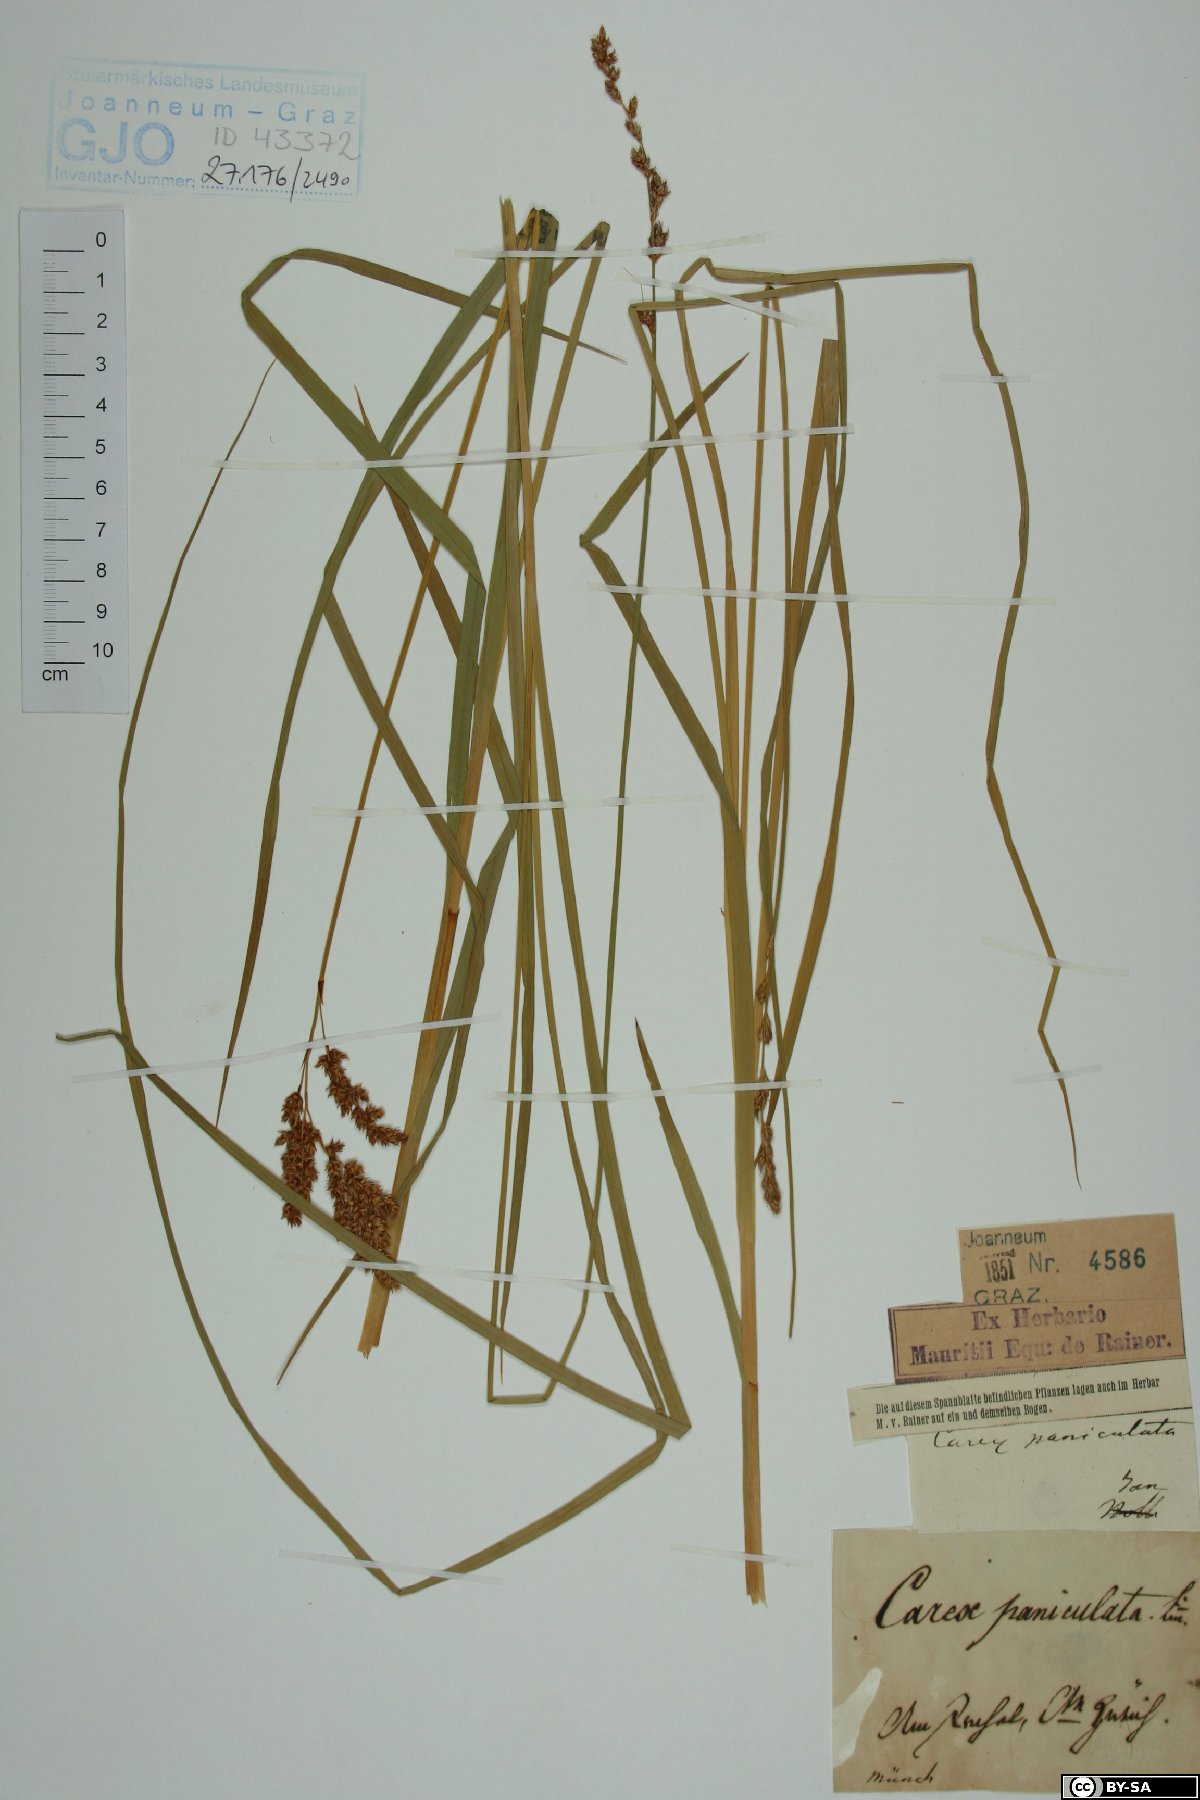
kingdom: Plantae
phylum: Tracheophyta
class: Liliopsida
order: Poales
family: Cyperaceae
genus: Carex
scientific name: Carex paniculata
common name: Greater tussock-sedge
